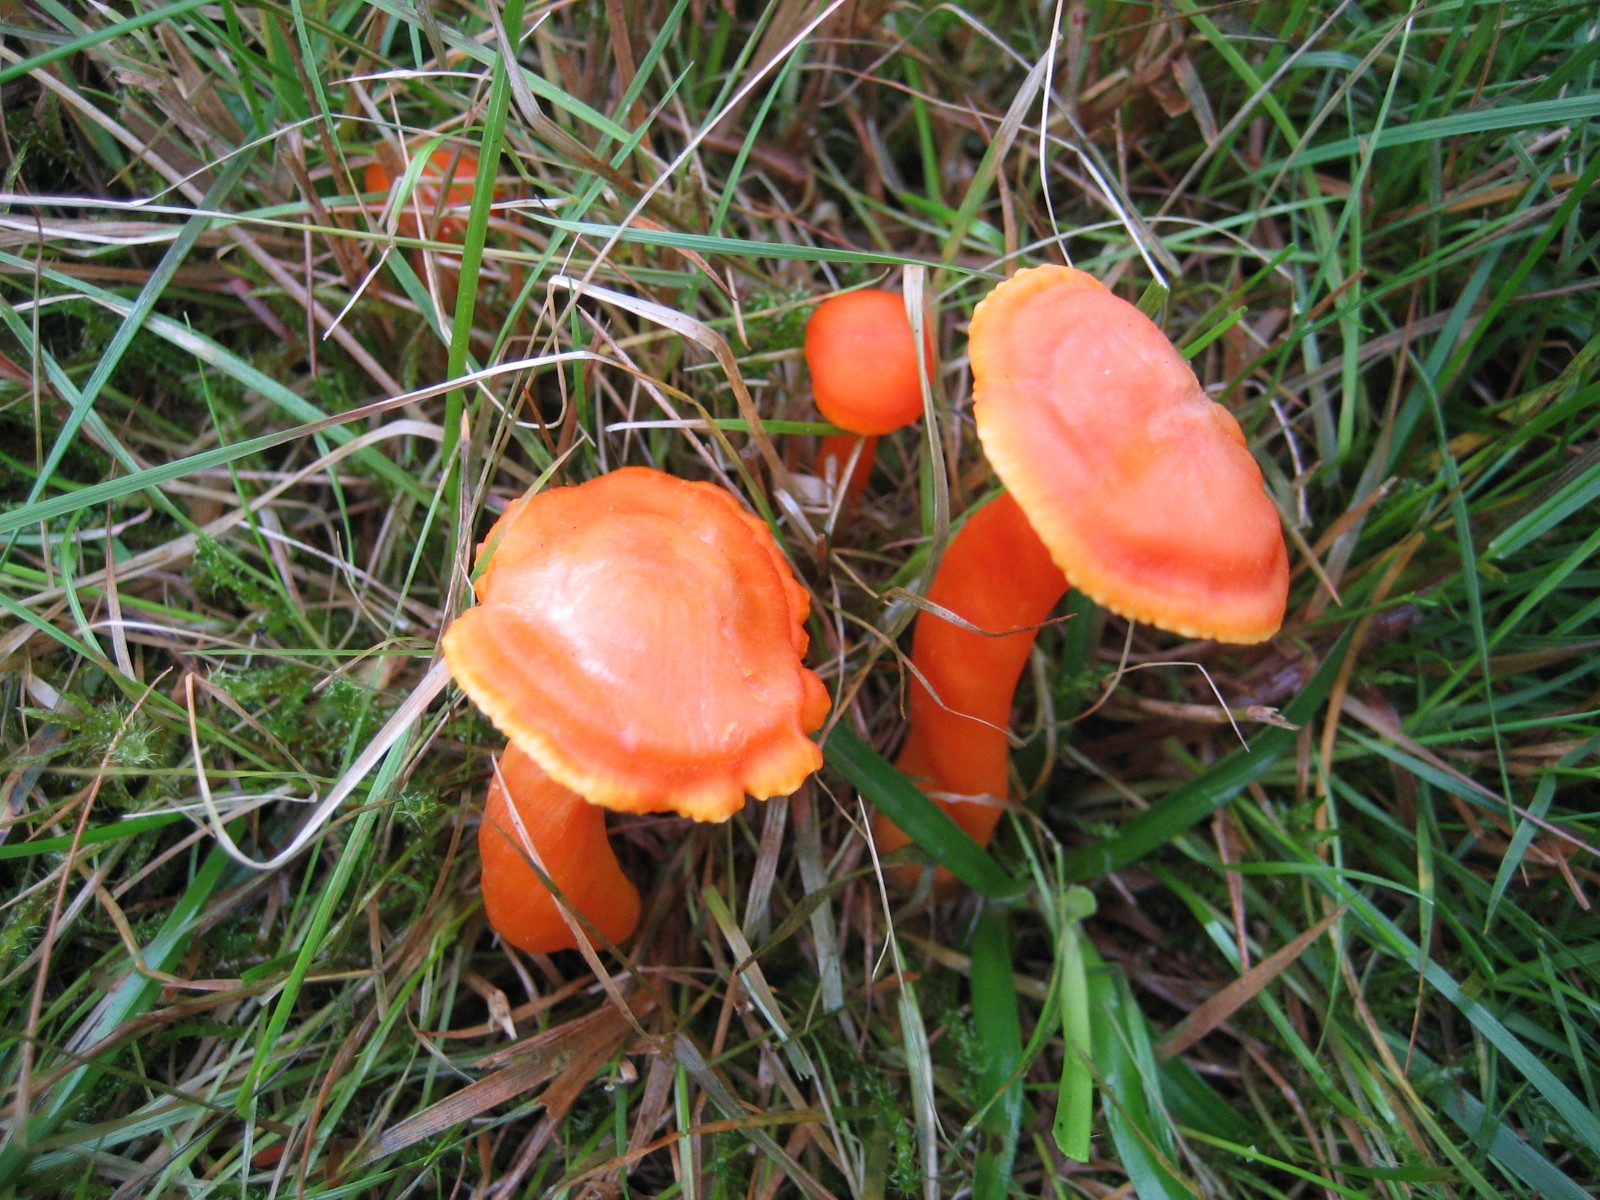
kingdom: Fungi
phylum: Basidiomycota
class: Agaricomycetes
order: Agaricales
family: Hygrophoraceae
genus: Hygrocybe
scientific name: Hygrocybe cantharellus
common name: kantarel-vokshat
